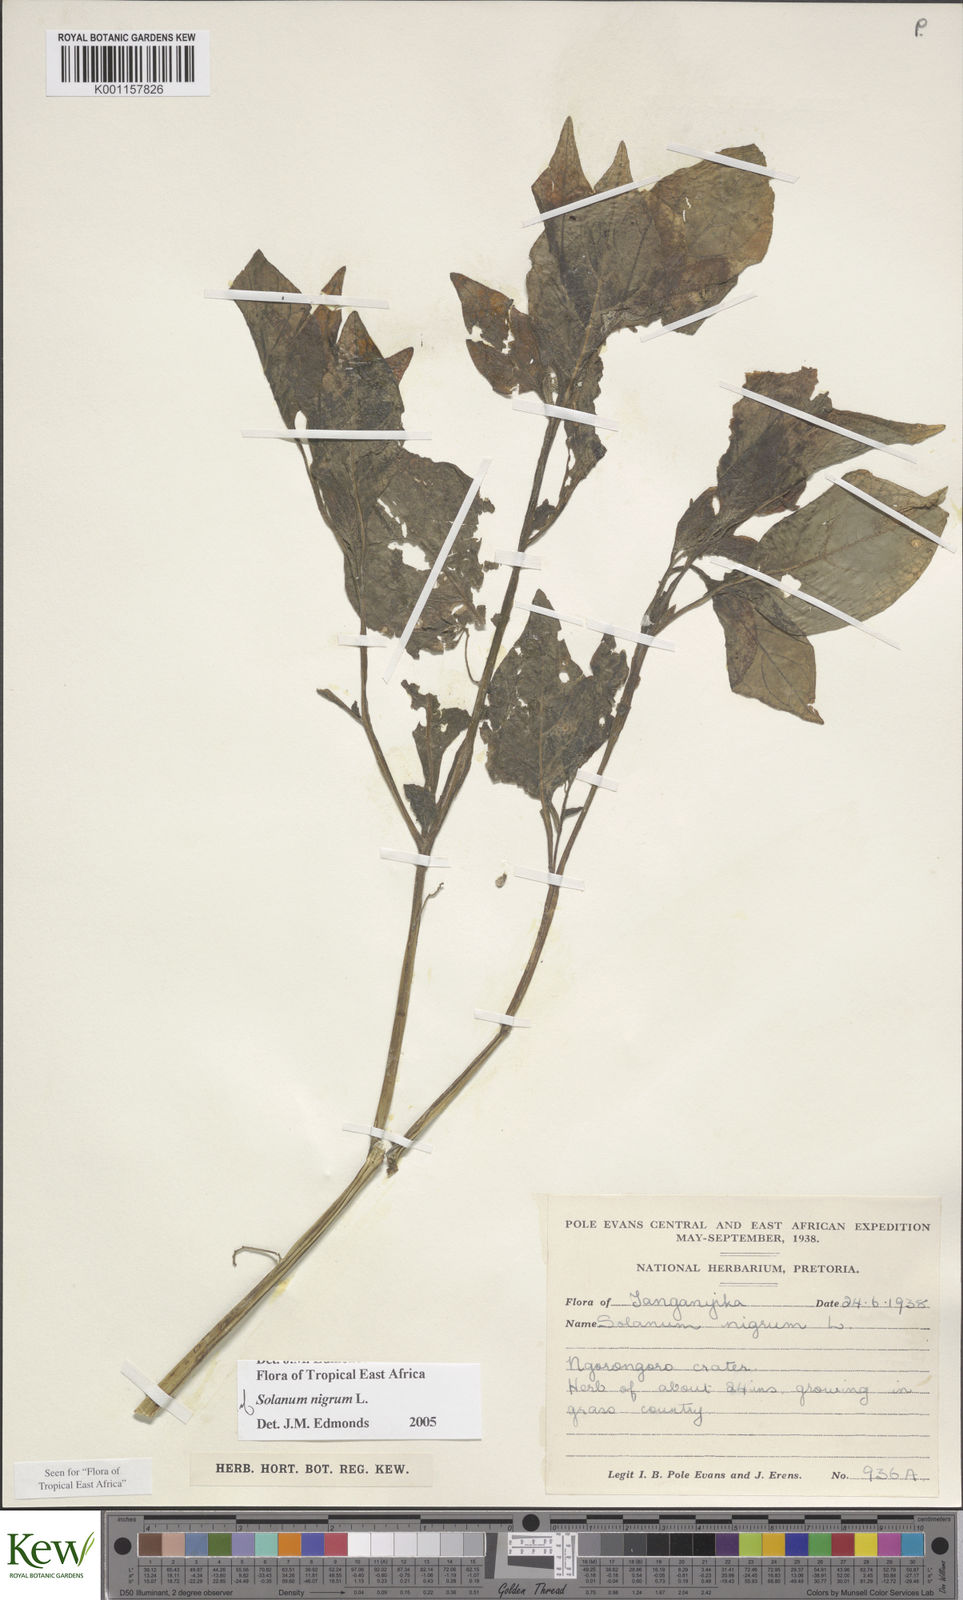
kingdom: Plantae
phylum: Tracheophyta
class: Magnoliopsida
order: Solanales
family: Solanaceae
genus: Solanum
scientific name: Solanum nigrum
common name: Black nightshade
